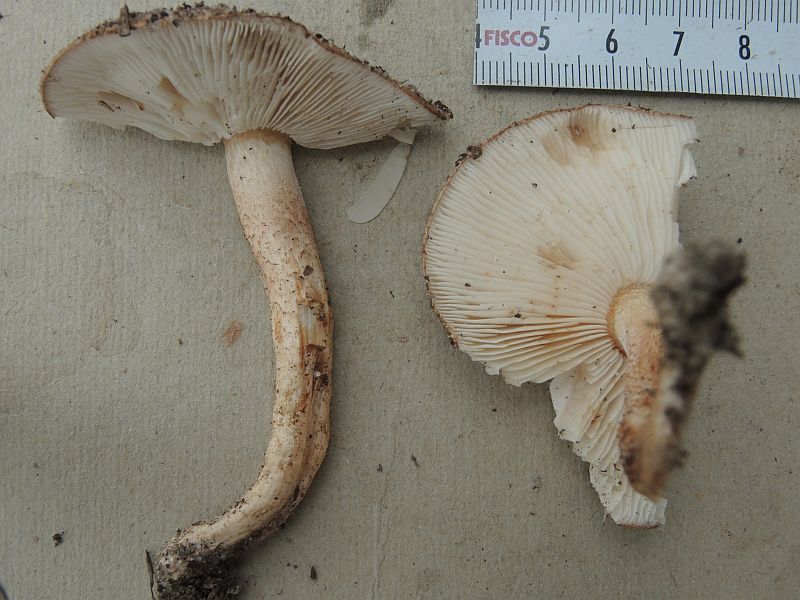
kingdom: Fungi
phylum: Basidiomycota
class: Agaricomycetes
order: Agaricales
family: Tricholomataceae
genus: Tricholoma
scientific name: Tricholoma albobrunneum
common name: kastanie-ridderhat
